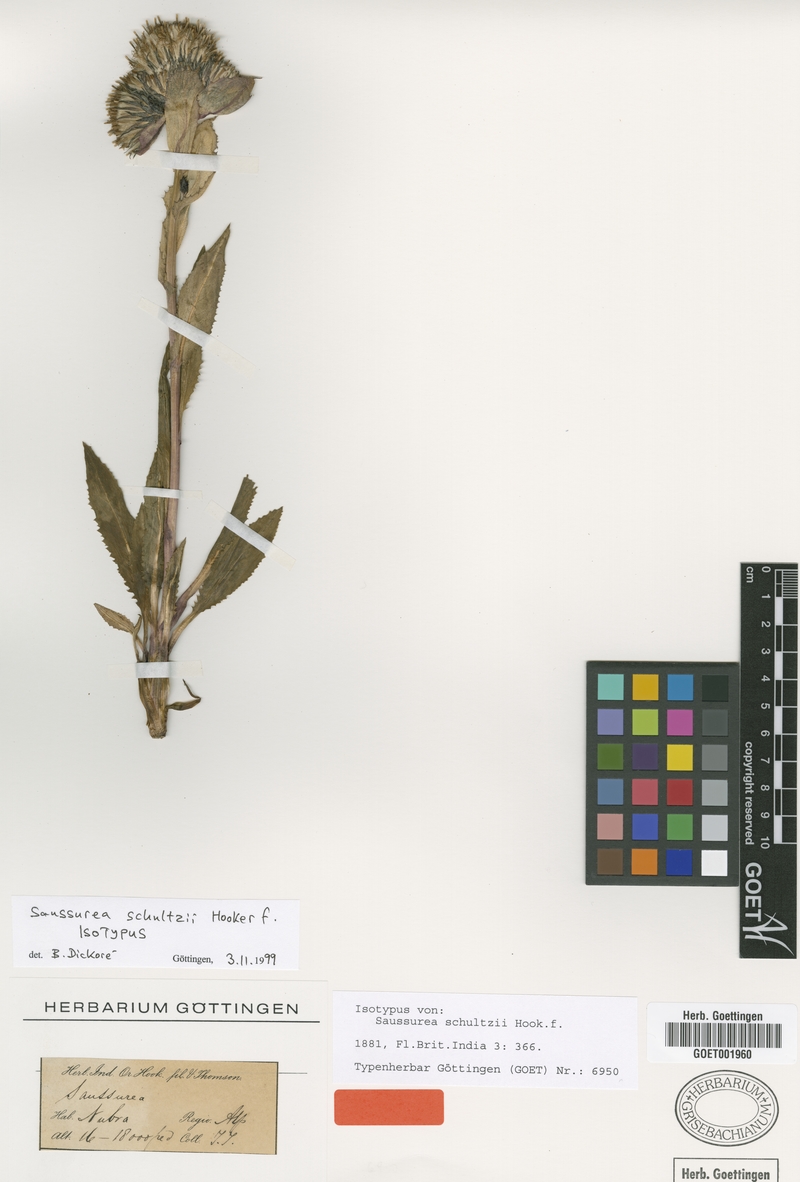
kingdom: Plantae
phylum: Tracheophyta
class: Magnoliopsida
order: Asterales
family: Asteraceae
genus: Saussurea
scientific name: Saussurea bracteata
